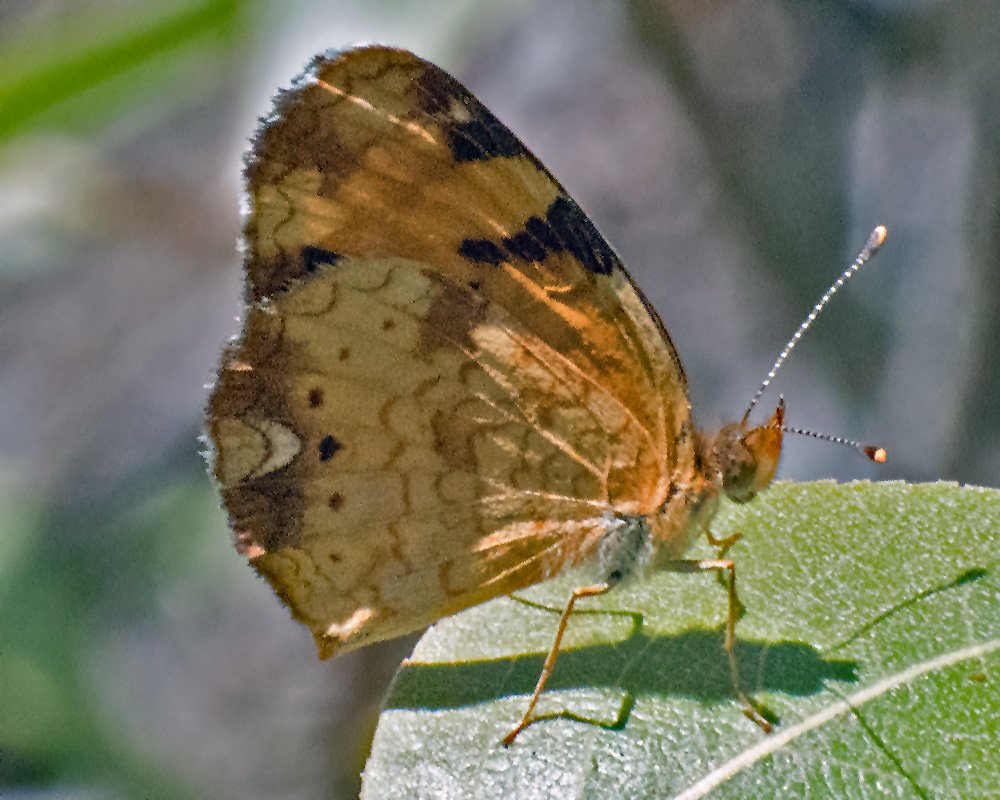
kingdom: Animalia
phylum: Arthropoda
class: Insecta
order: Lepidoptera
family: Nymphalidae
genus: Phyciodes
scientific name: Phyciodes tharos
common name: Northern Crescent
